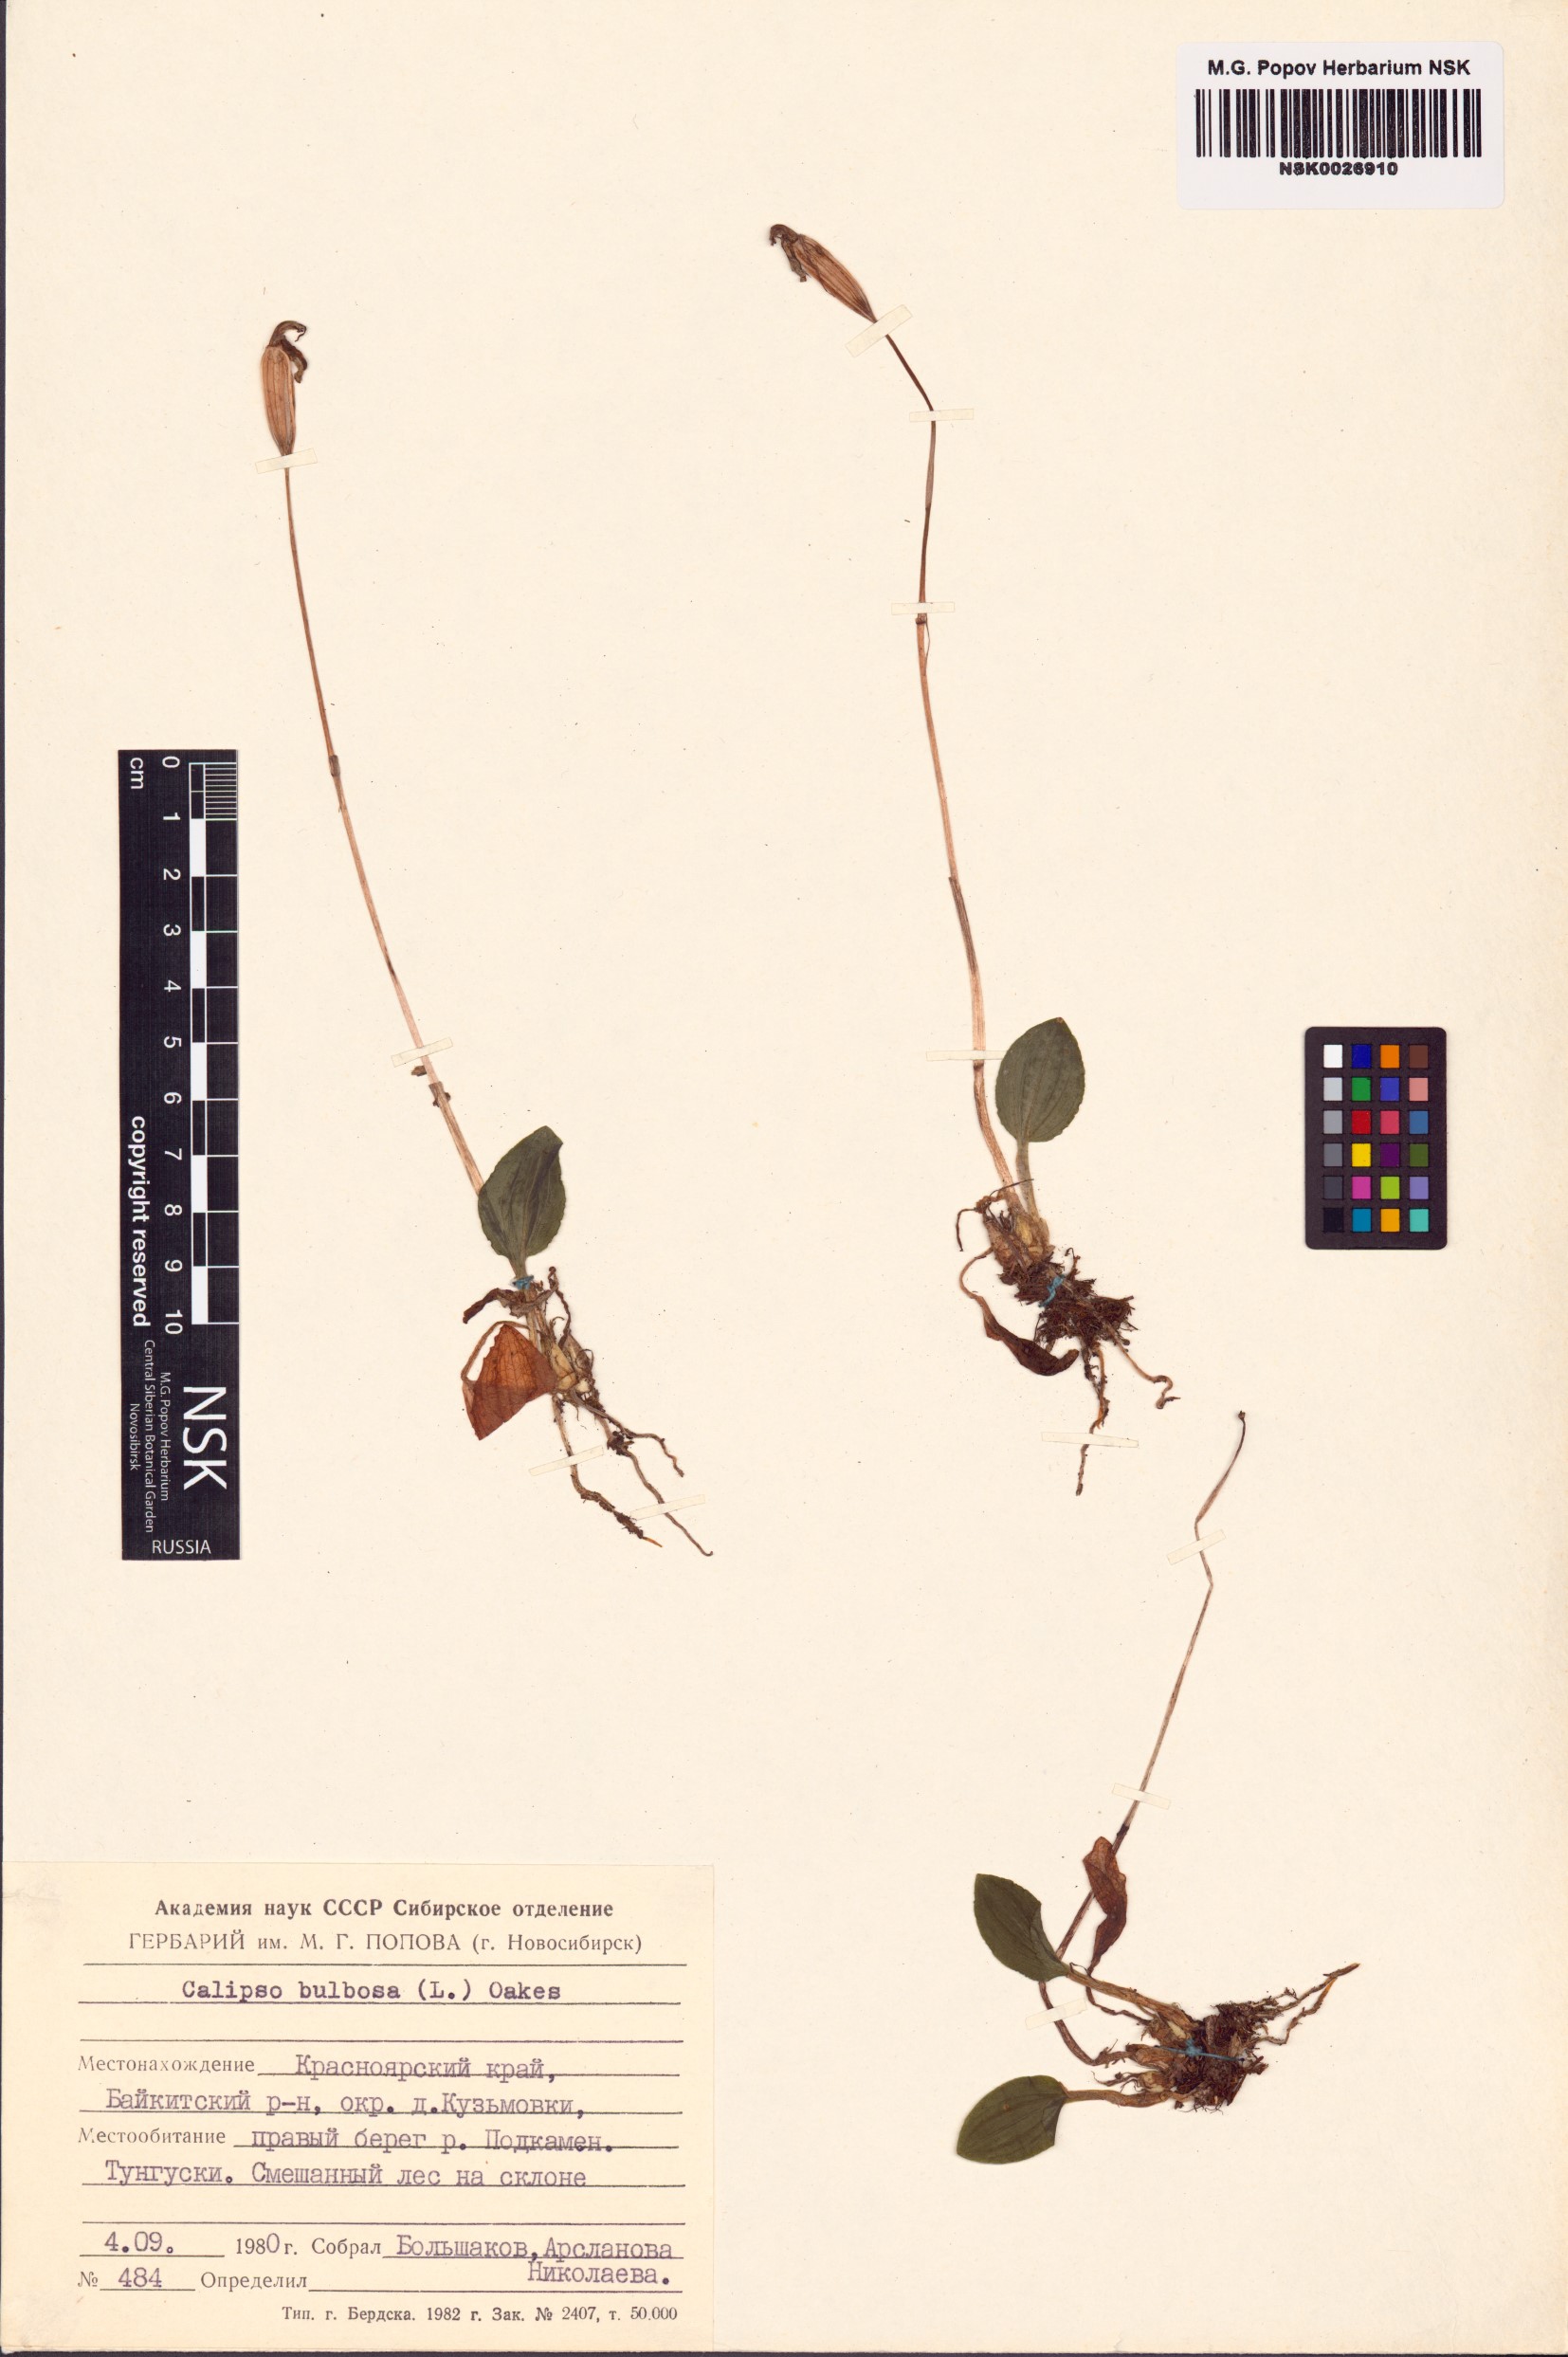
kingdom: Plantae
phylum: Tracheophyta
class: Liliopsida
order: Asparagales
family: Orchidaceae
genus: Calypso
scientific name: Calypso bulbosa
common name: Calypso
